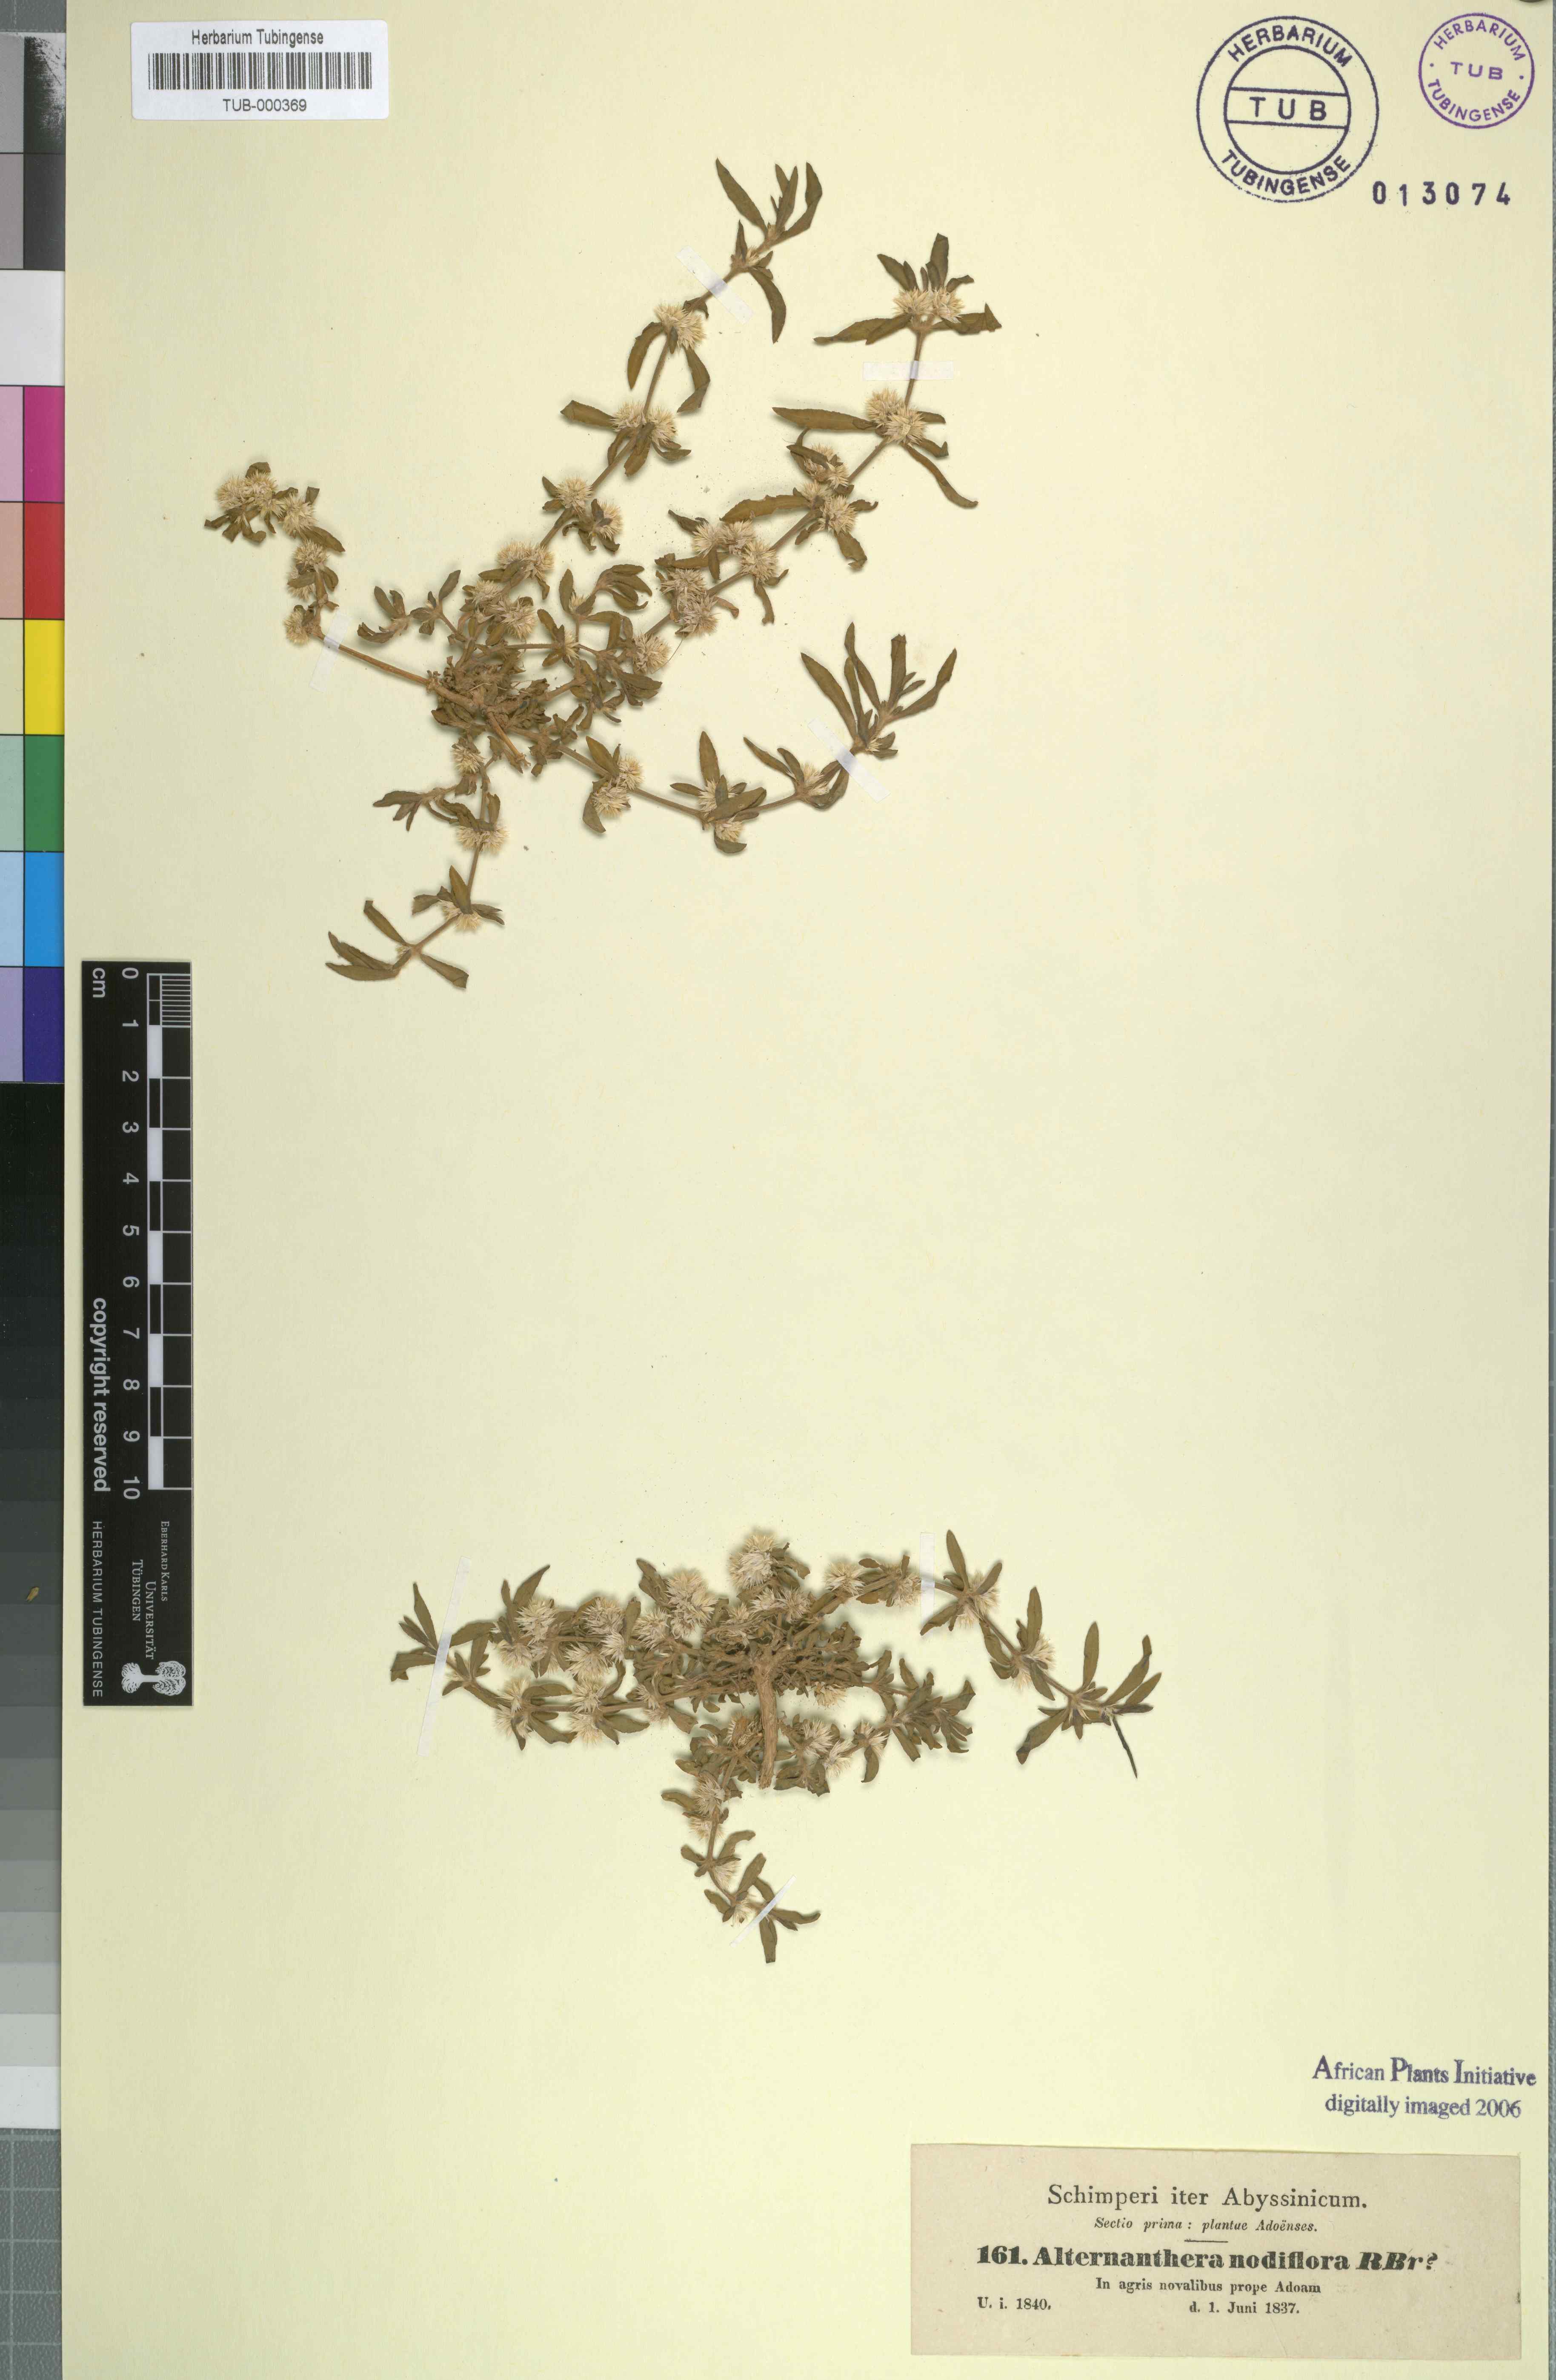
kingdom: Plantae
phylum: Tracheophyta
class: Magnoliopsida
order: Caryophyllales
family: Amaranthaceae
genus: Alternanthera
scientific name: Alternanthera sessilis
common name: Sessile joyweed
